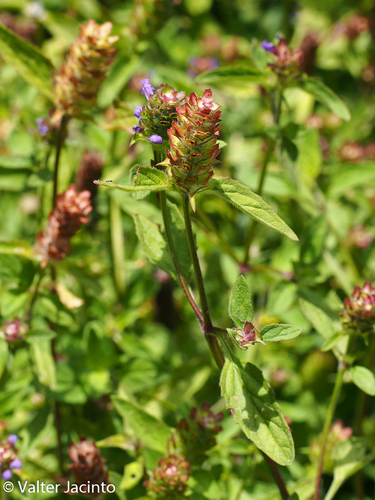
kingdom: Plantae
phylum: Tracheophyta
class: Magnoliopsida
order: Lamiales
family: Lamiaceae
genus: Prunella
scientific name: Prunella vulgaris
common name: Heal-all
